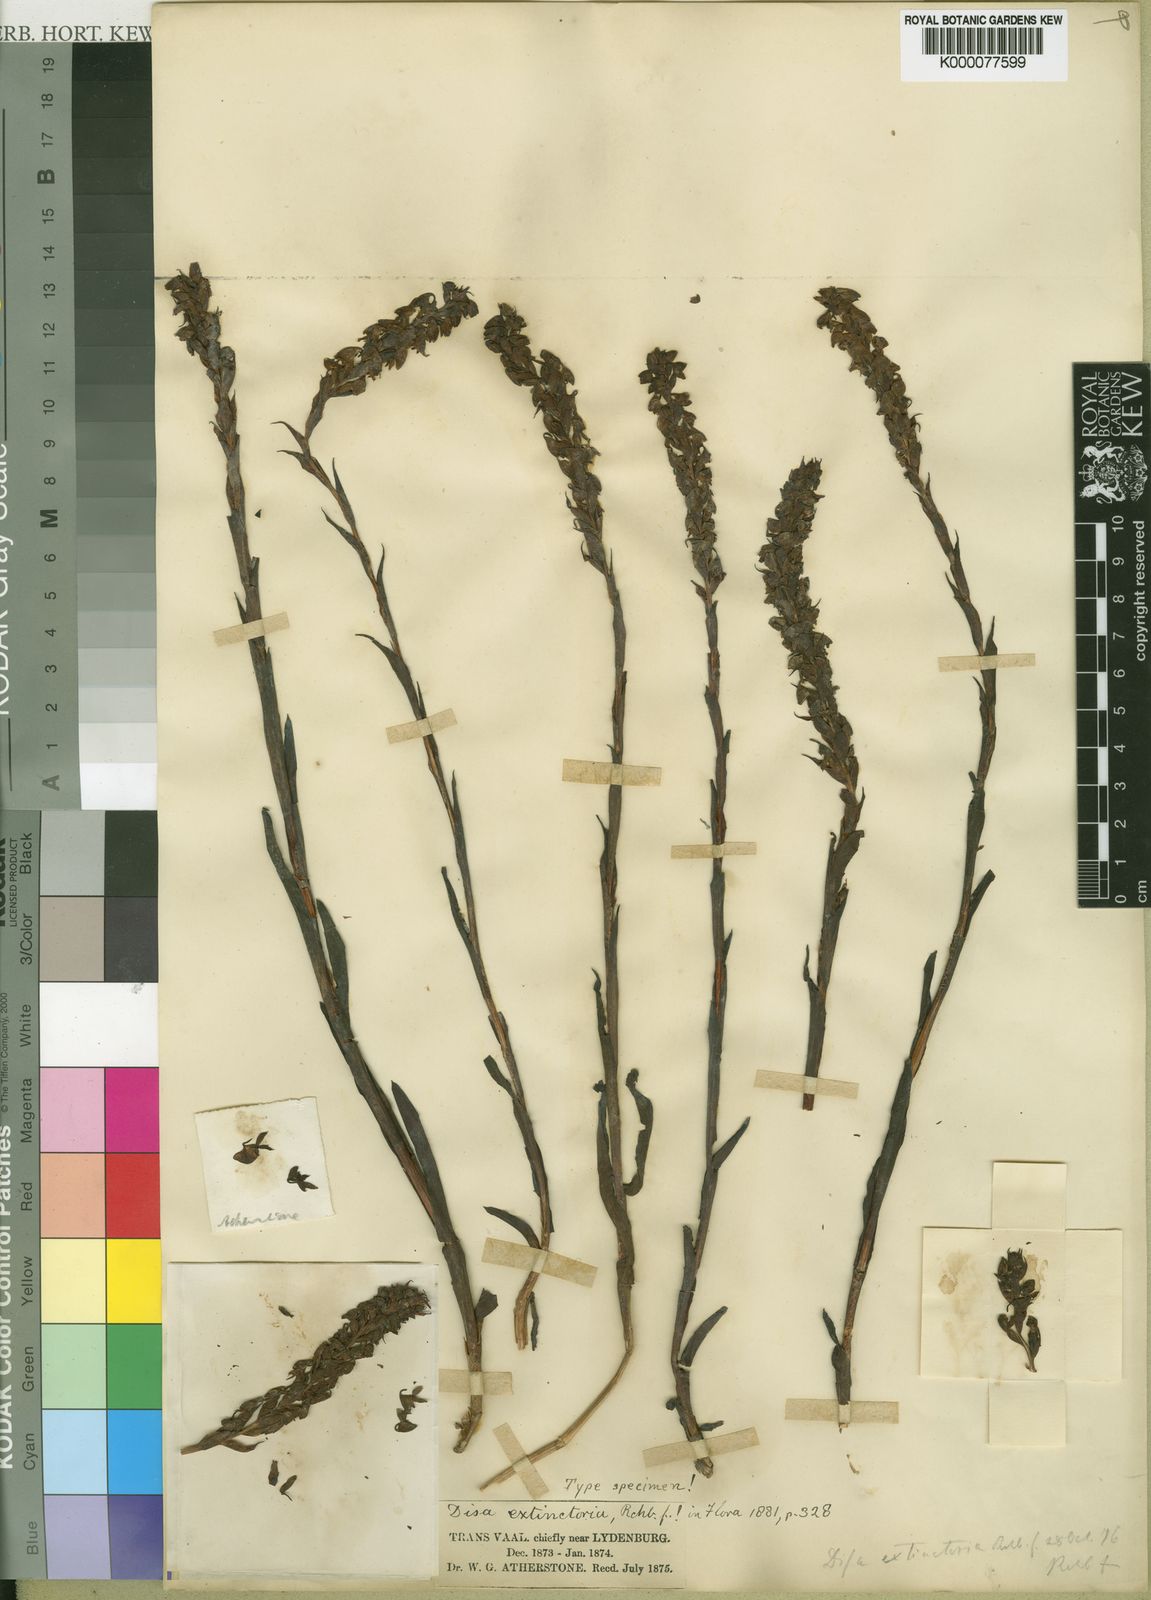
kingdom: Plantae
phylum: Tracheophyta
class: Liliopsida
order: Asparagales
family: Orchidaceae
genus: Disa
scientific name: Disa extinctoria
